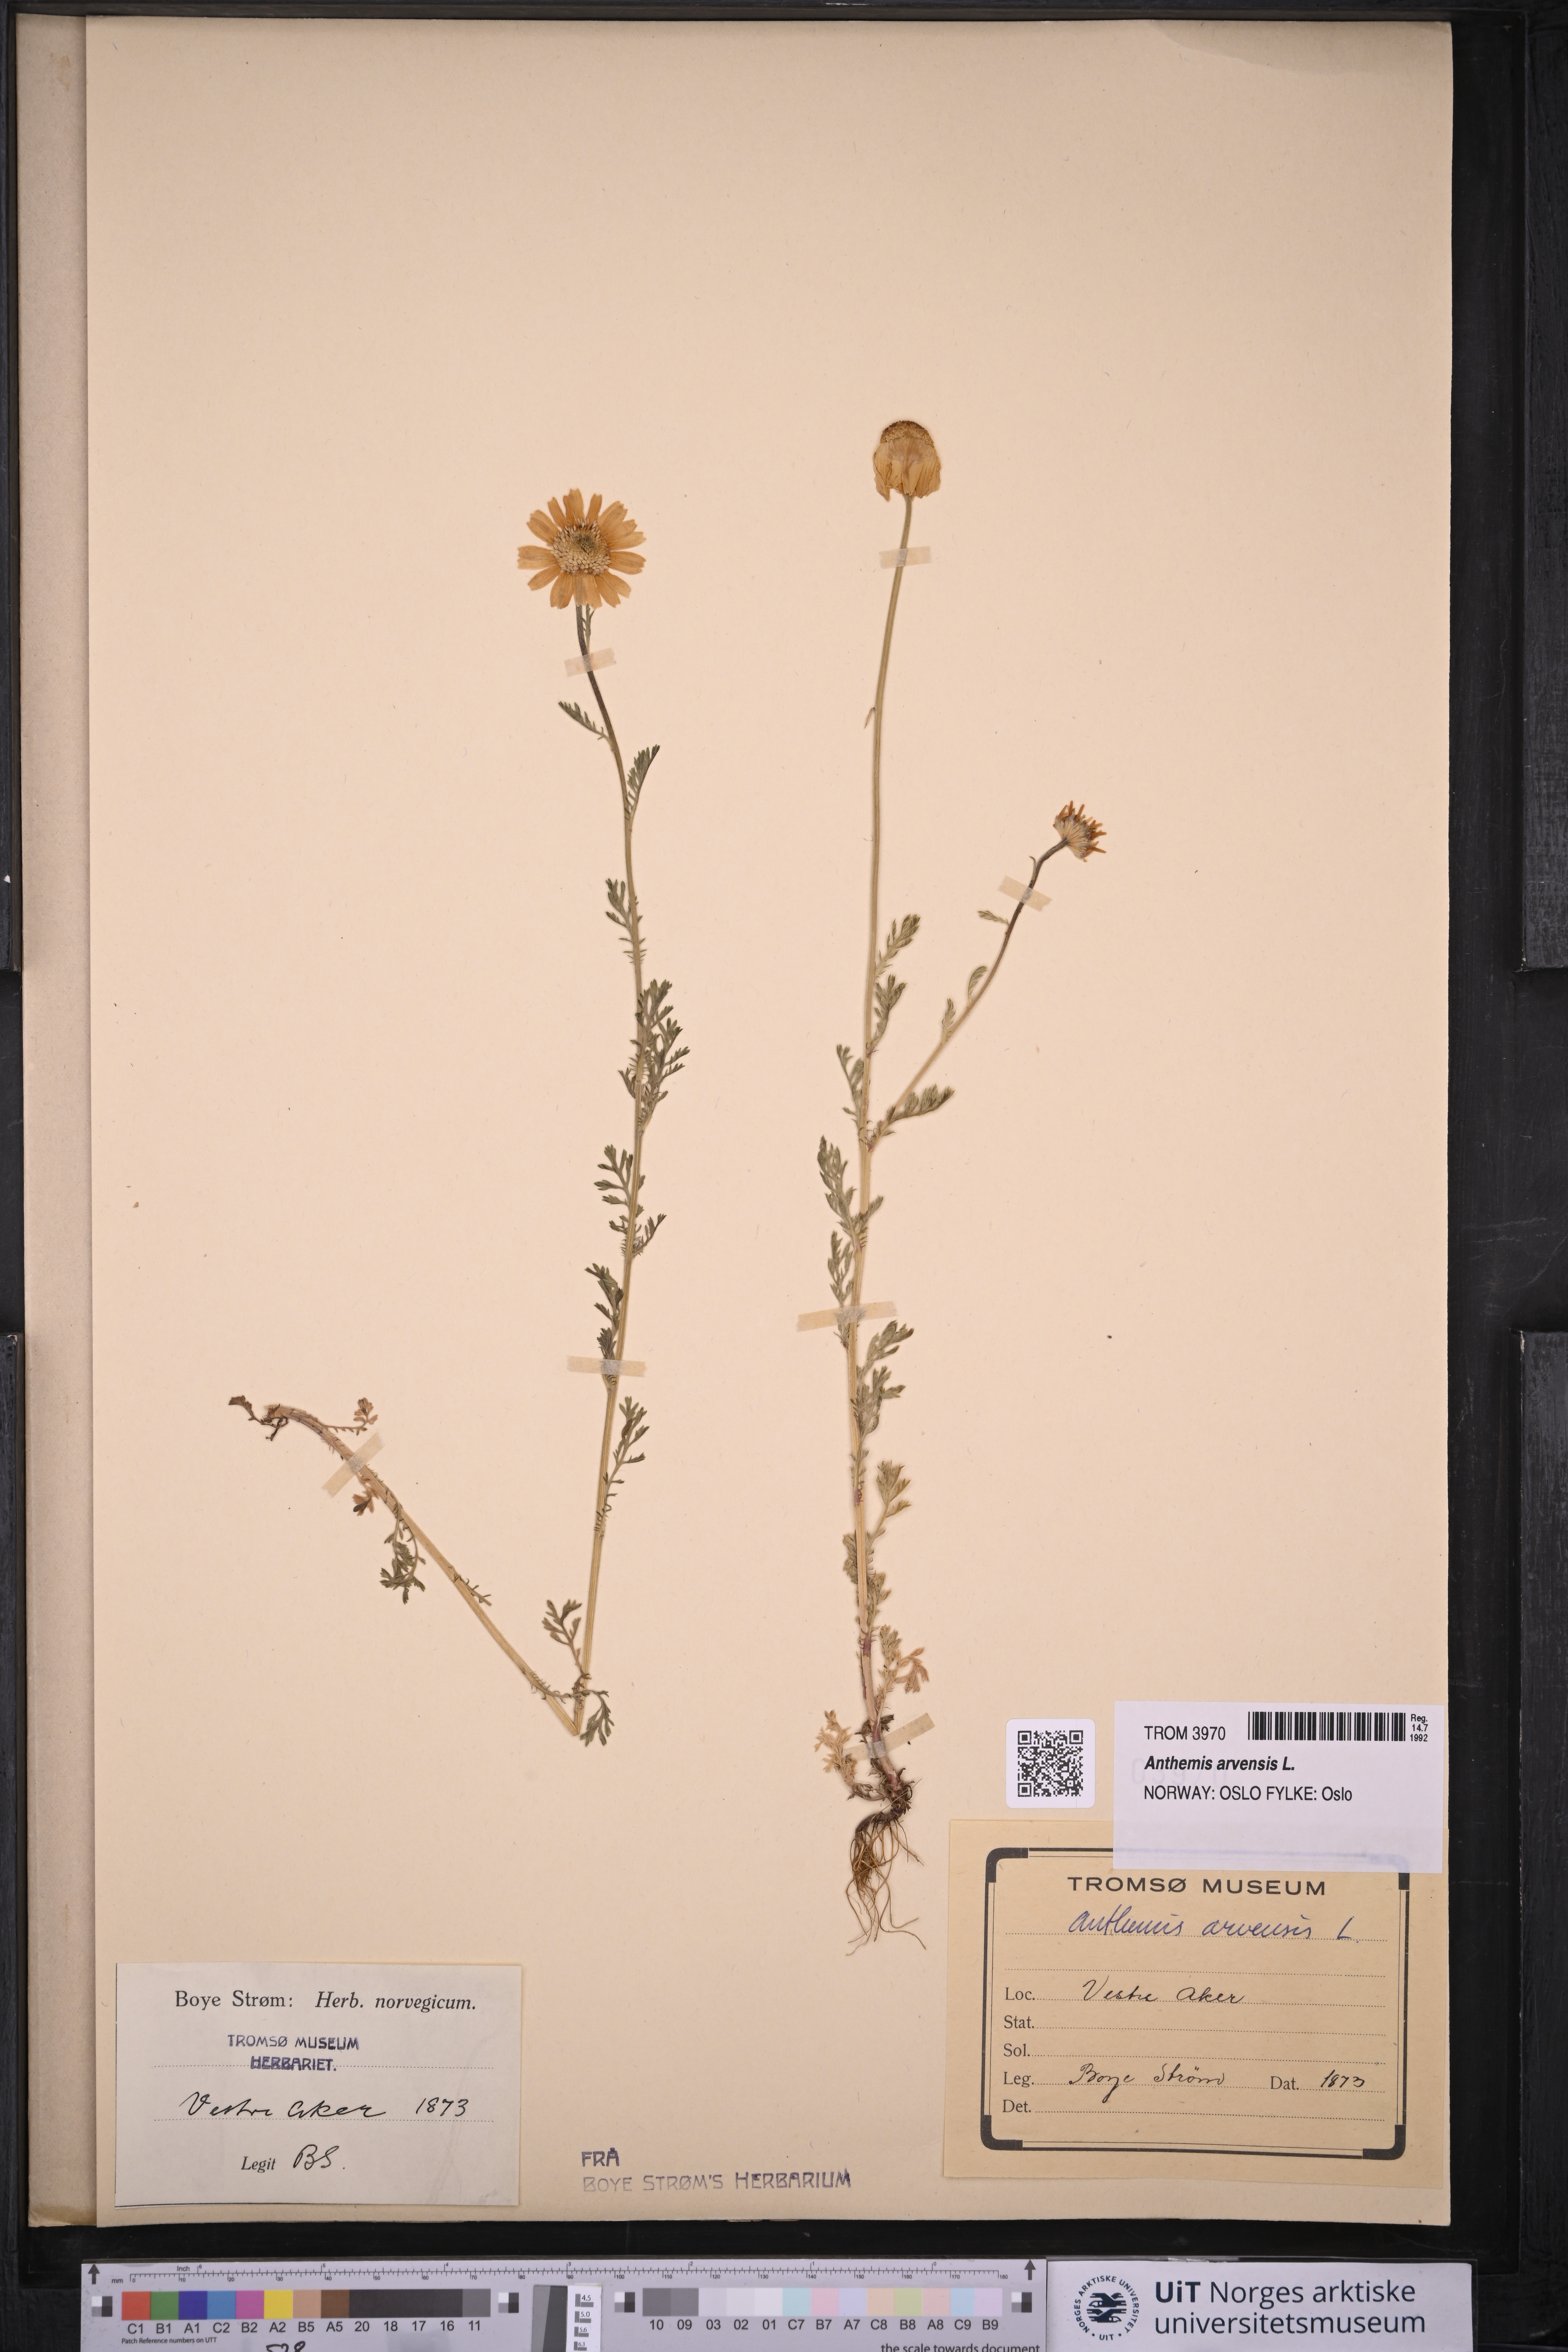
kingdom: Plantae
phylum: Tracheophyta
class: Magnoliopsida
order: Asterales
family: Asteraceae
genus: Anthemis
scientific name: Anthemis arvensis
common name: Corn chamomile
